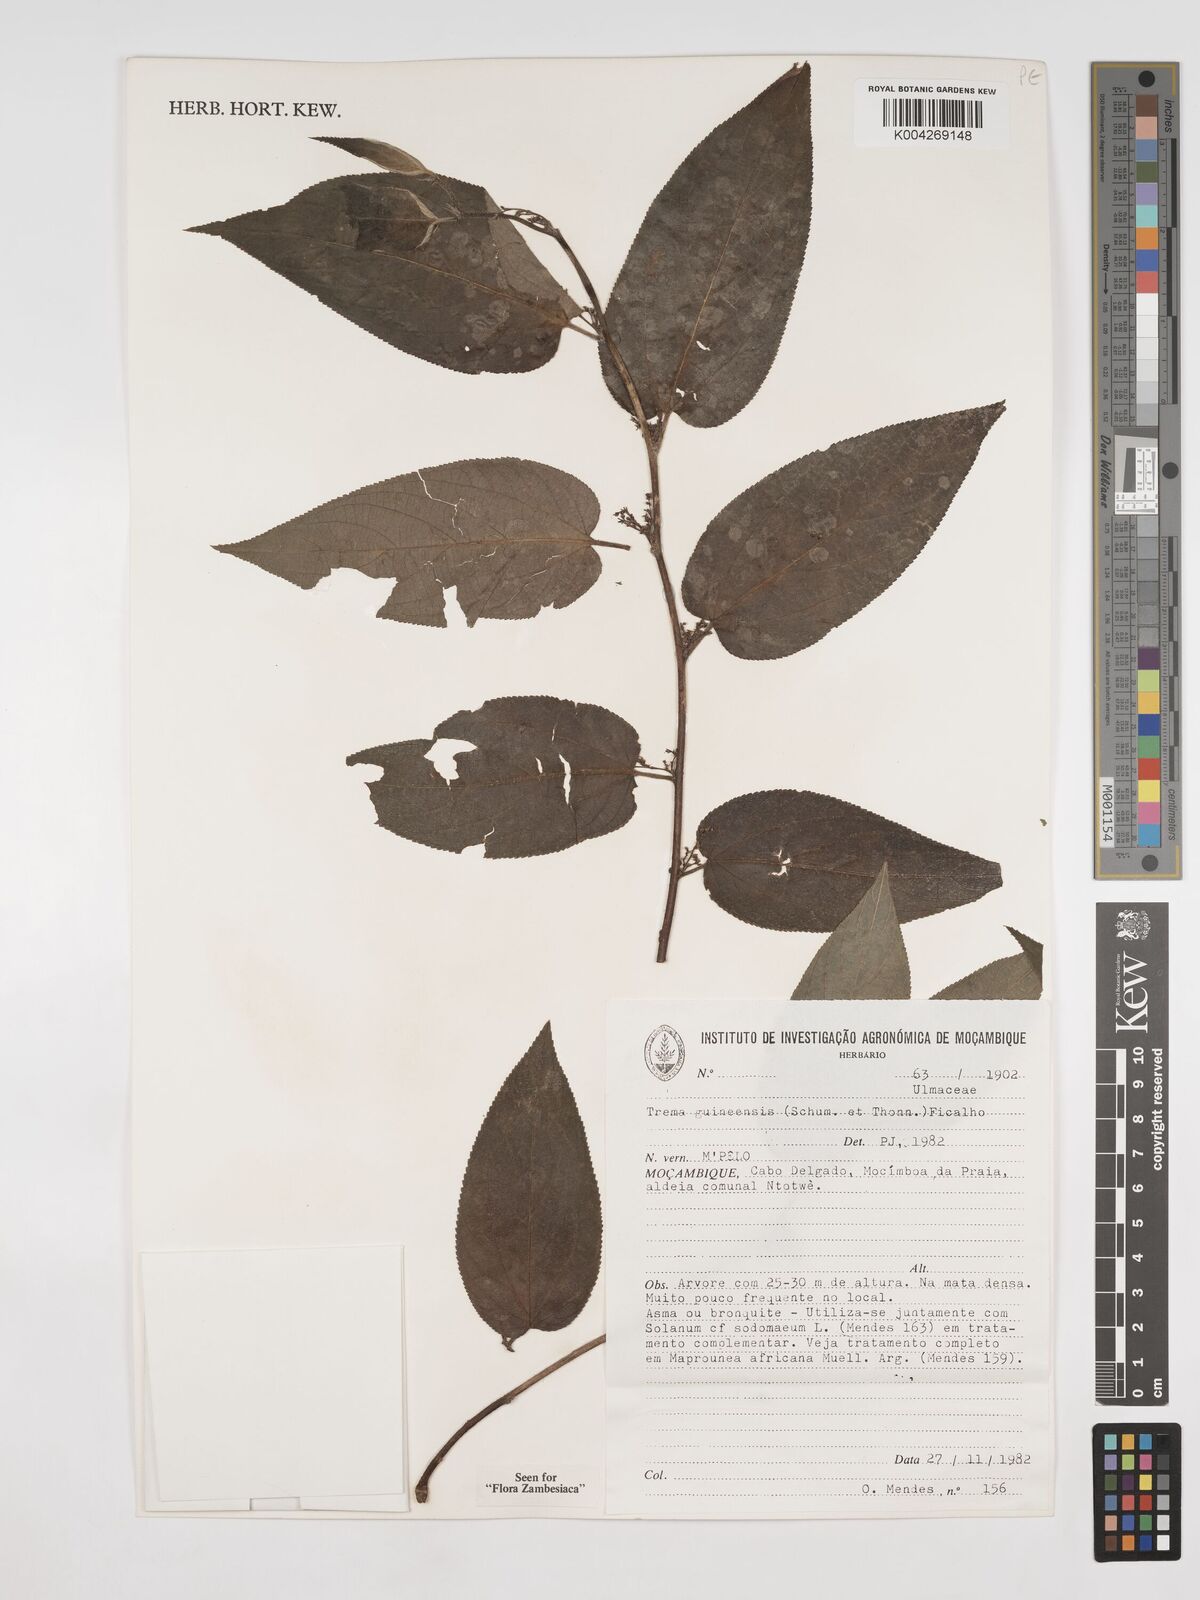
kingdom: Plantae
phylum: Tracheophyta
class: Magnoliopsida
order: Rosales
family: Cannabaceae
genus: Trema
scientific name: Trema orientale
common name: Indian charcoal tree
